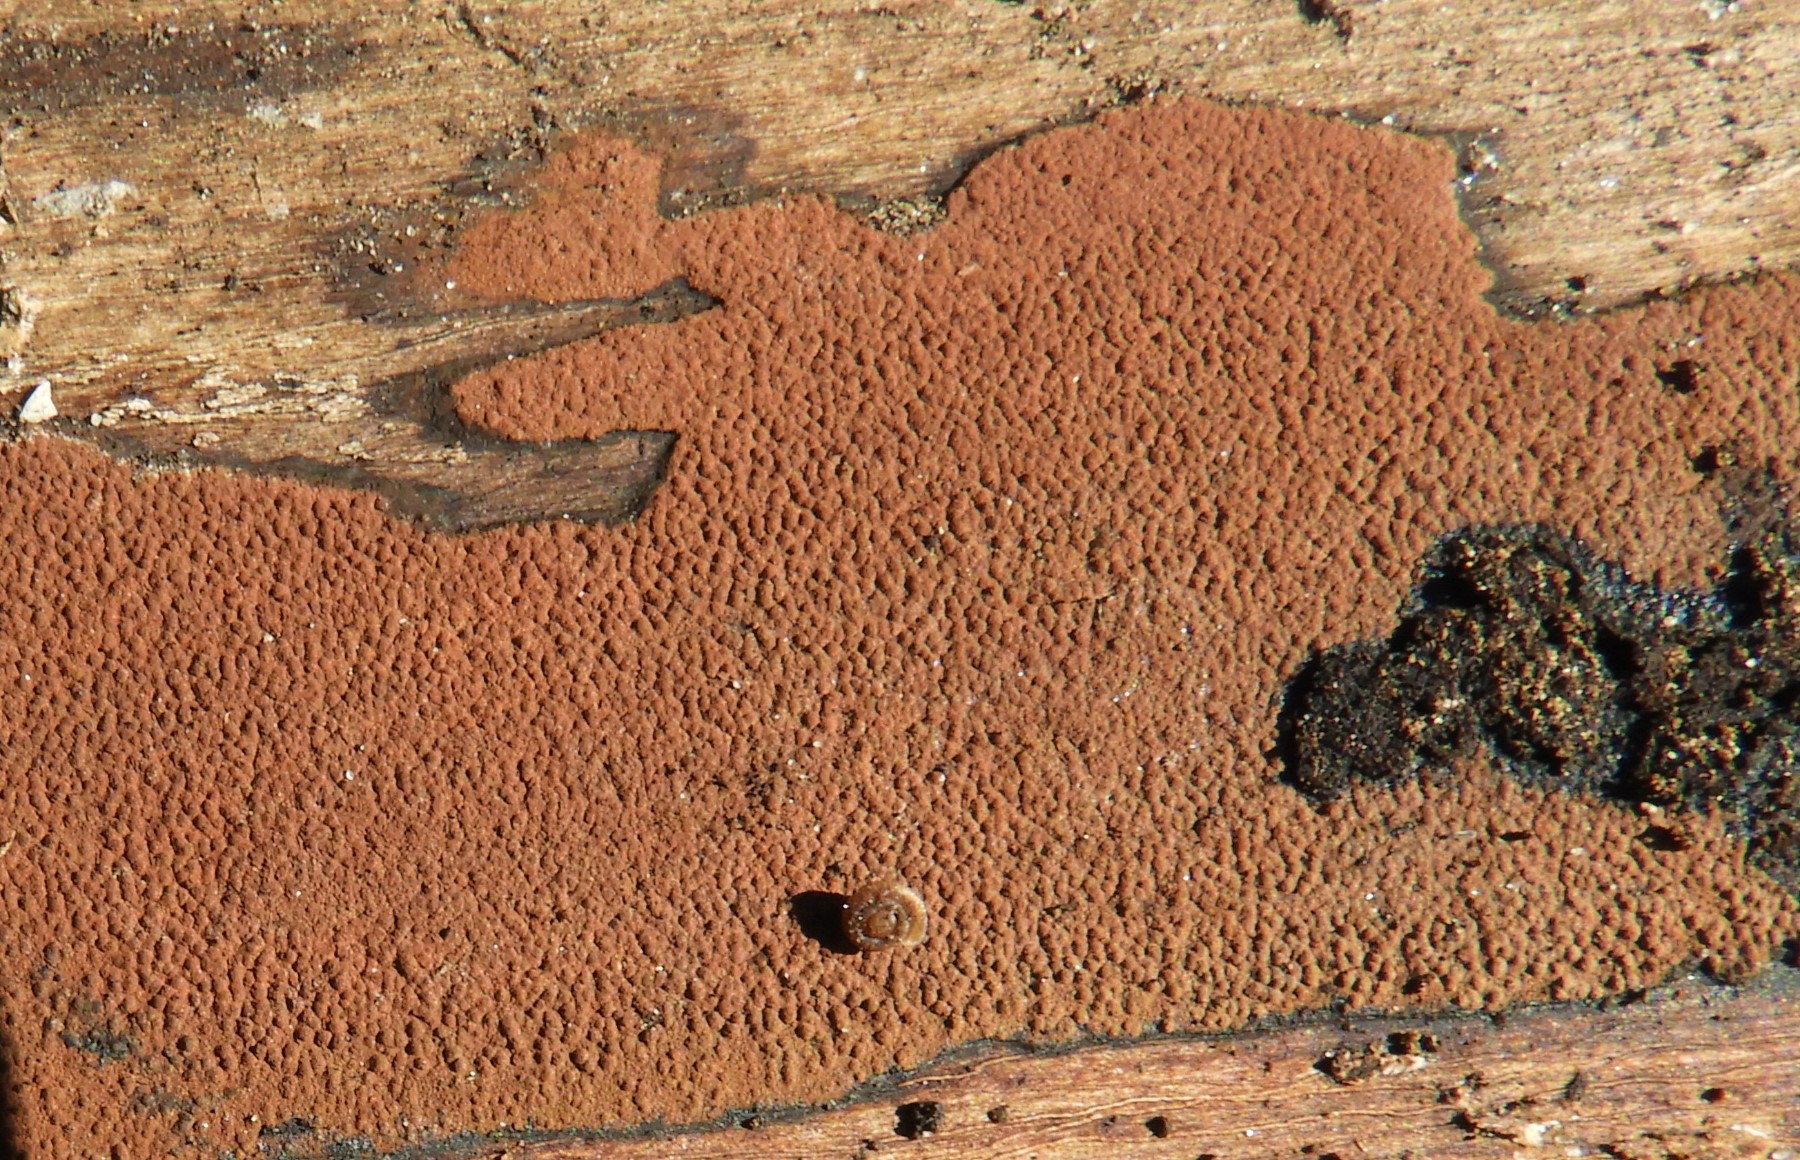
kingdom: Fungi
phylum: Ascomycota
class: Sordariomycetes
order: Xylariales
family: Hypoxylaceae
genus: Hypoxylon
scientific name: Hypoxylon
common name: kulbær
